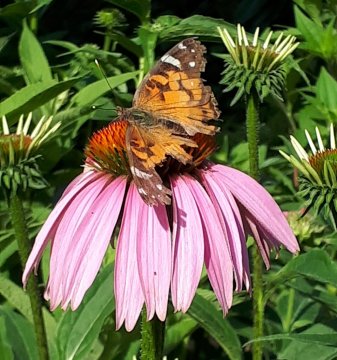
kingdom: Animalia
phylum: Arthropoda
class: Insecta
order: Lepidoptera
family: Nymphalidae
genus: Vanessa
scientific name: Vanessa virginiensis
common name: American Lady
